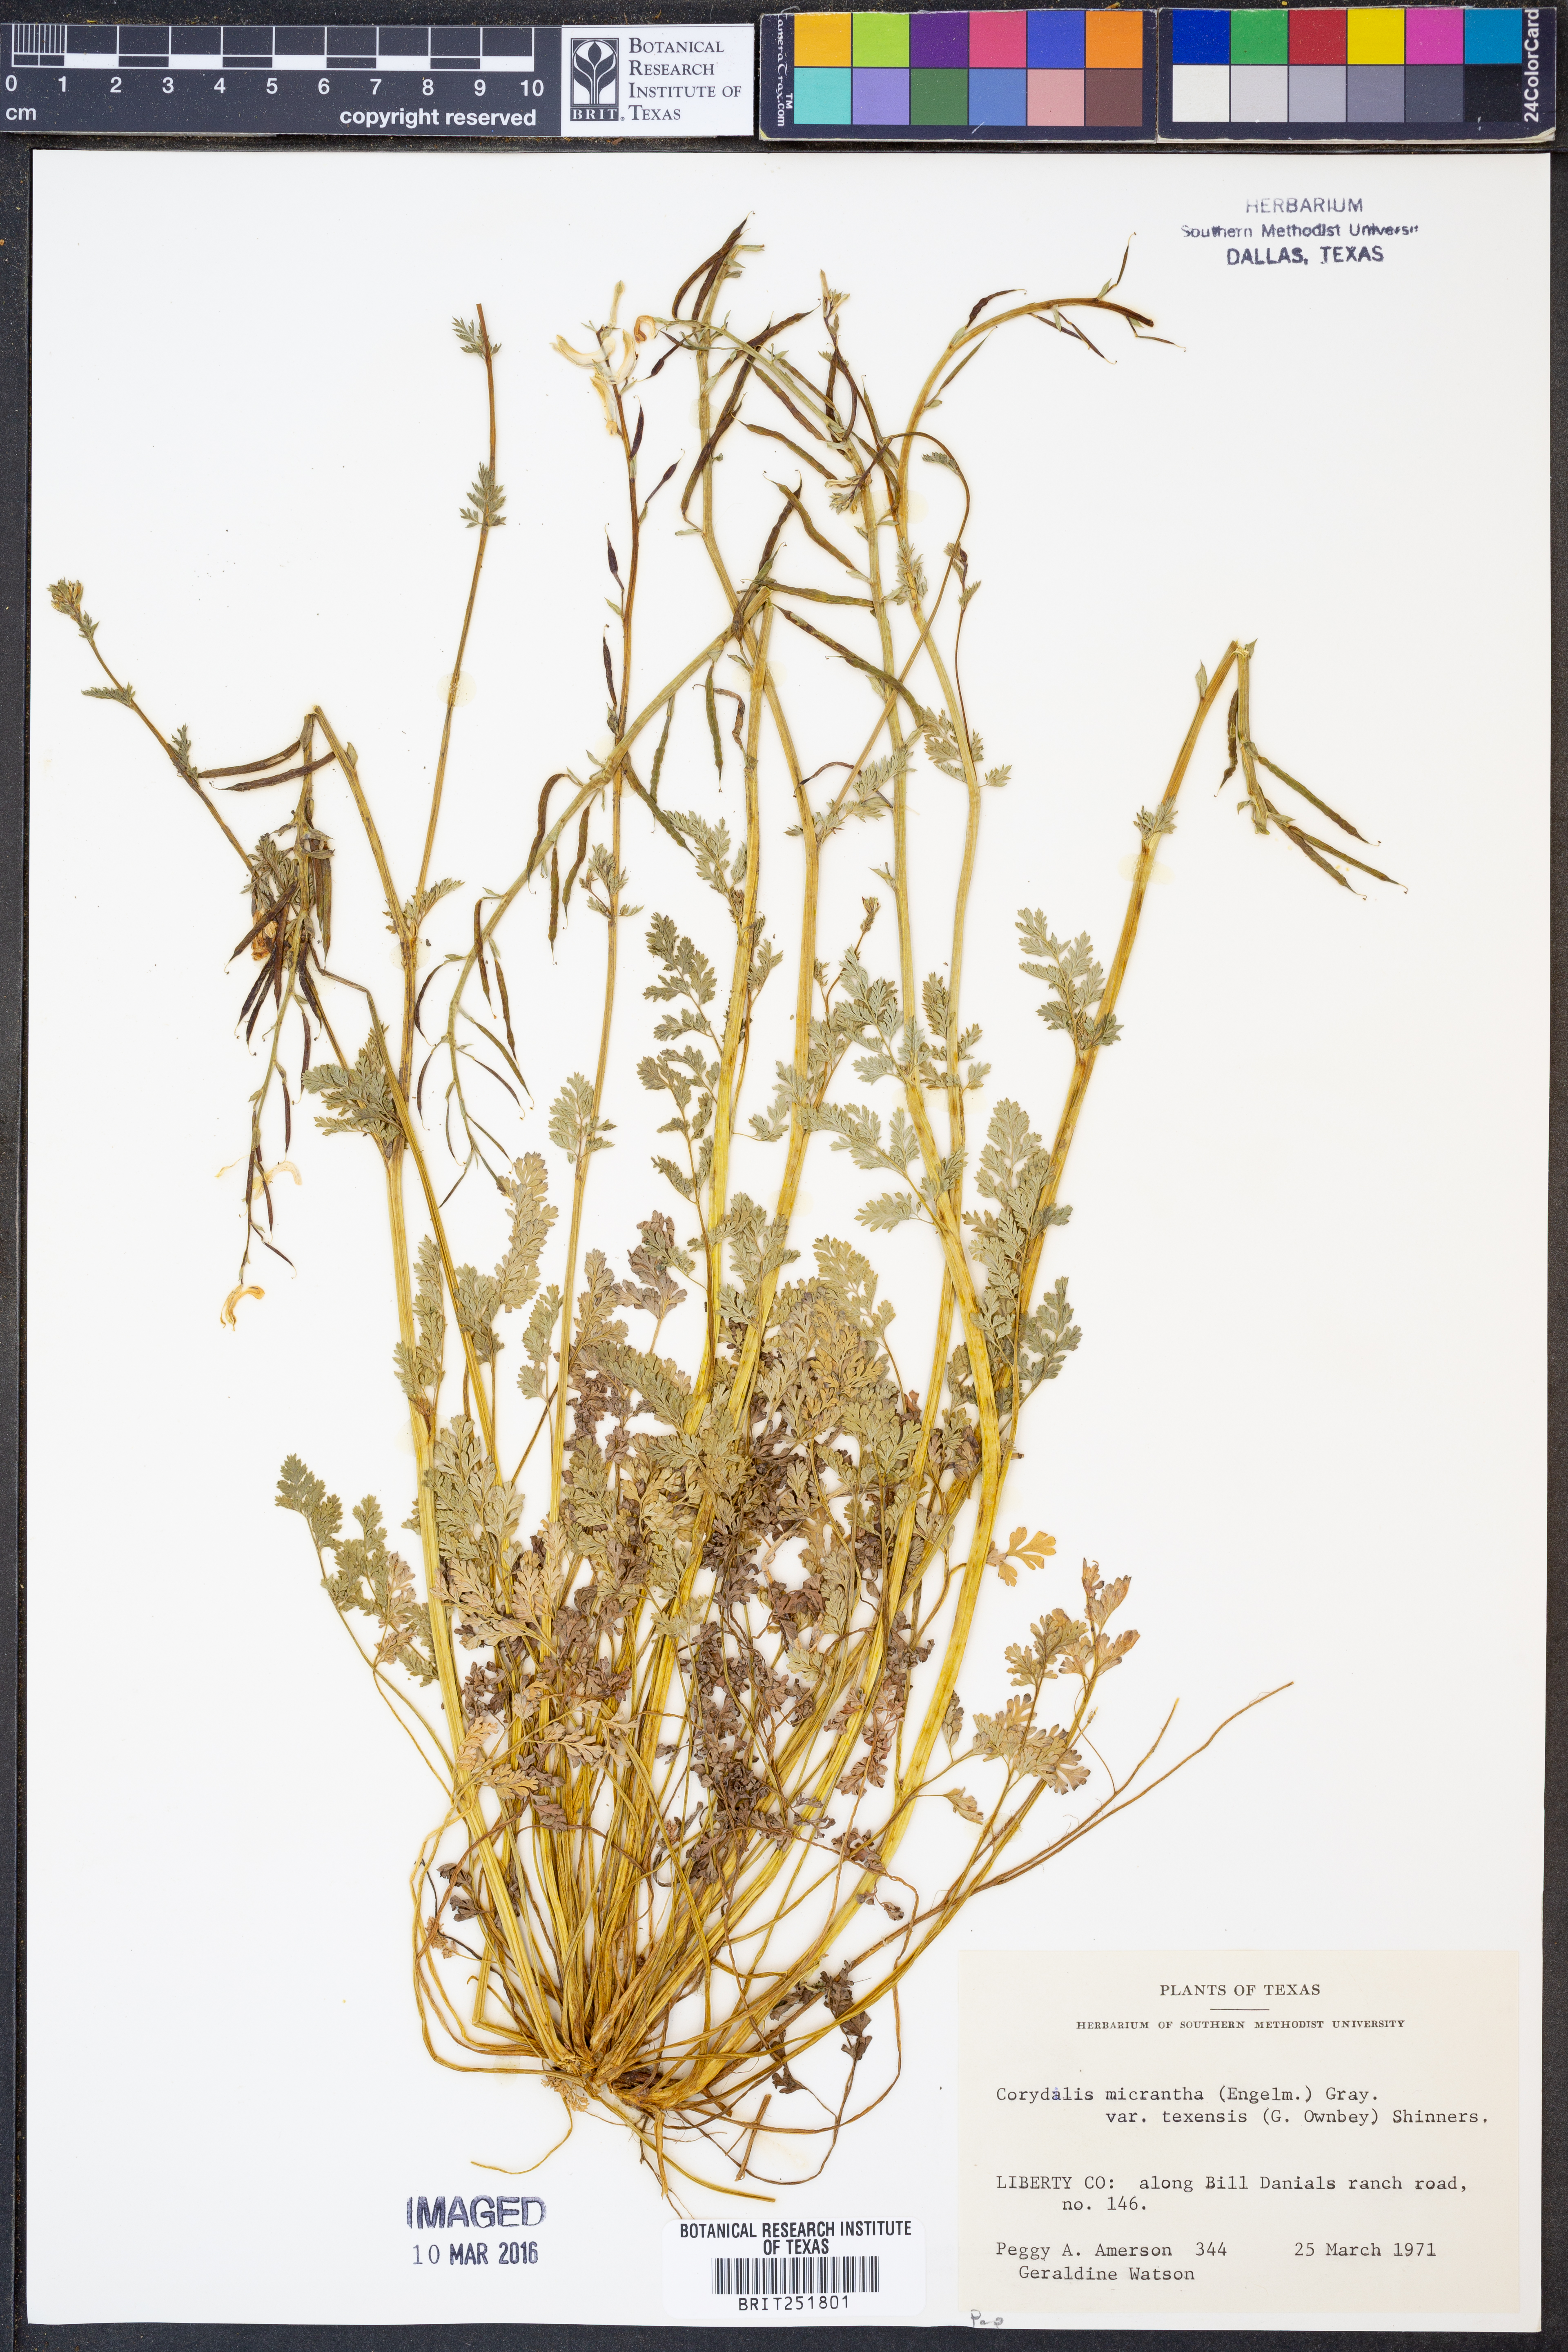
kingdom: Plantae
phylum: Tracheophyta
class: Magnoliopsida
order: Ranunculales
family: Papaveraceae
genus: Corydalis
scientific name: Corydalis micrantha
